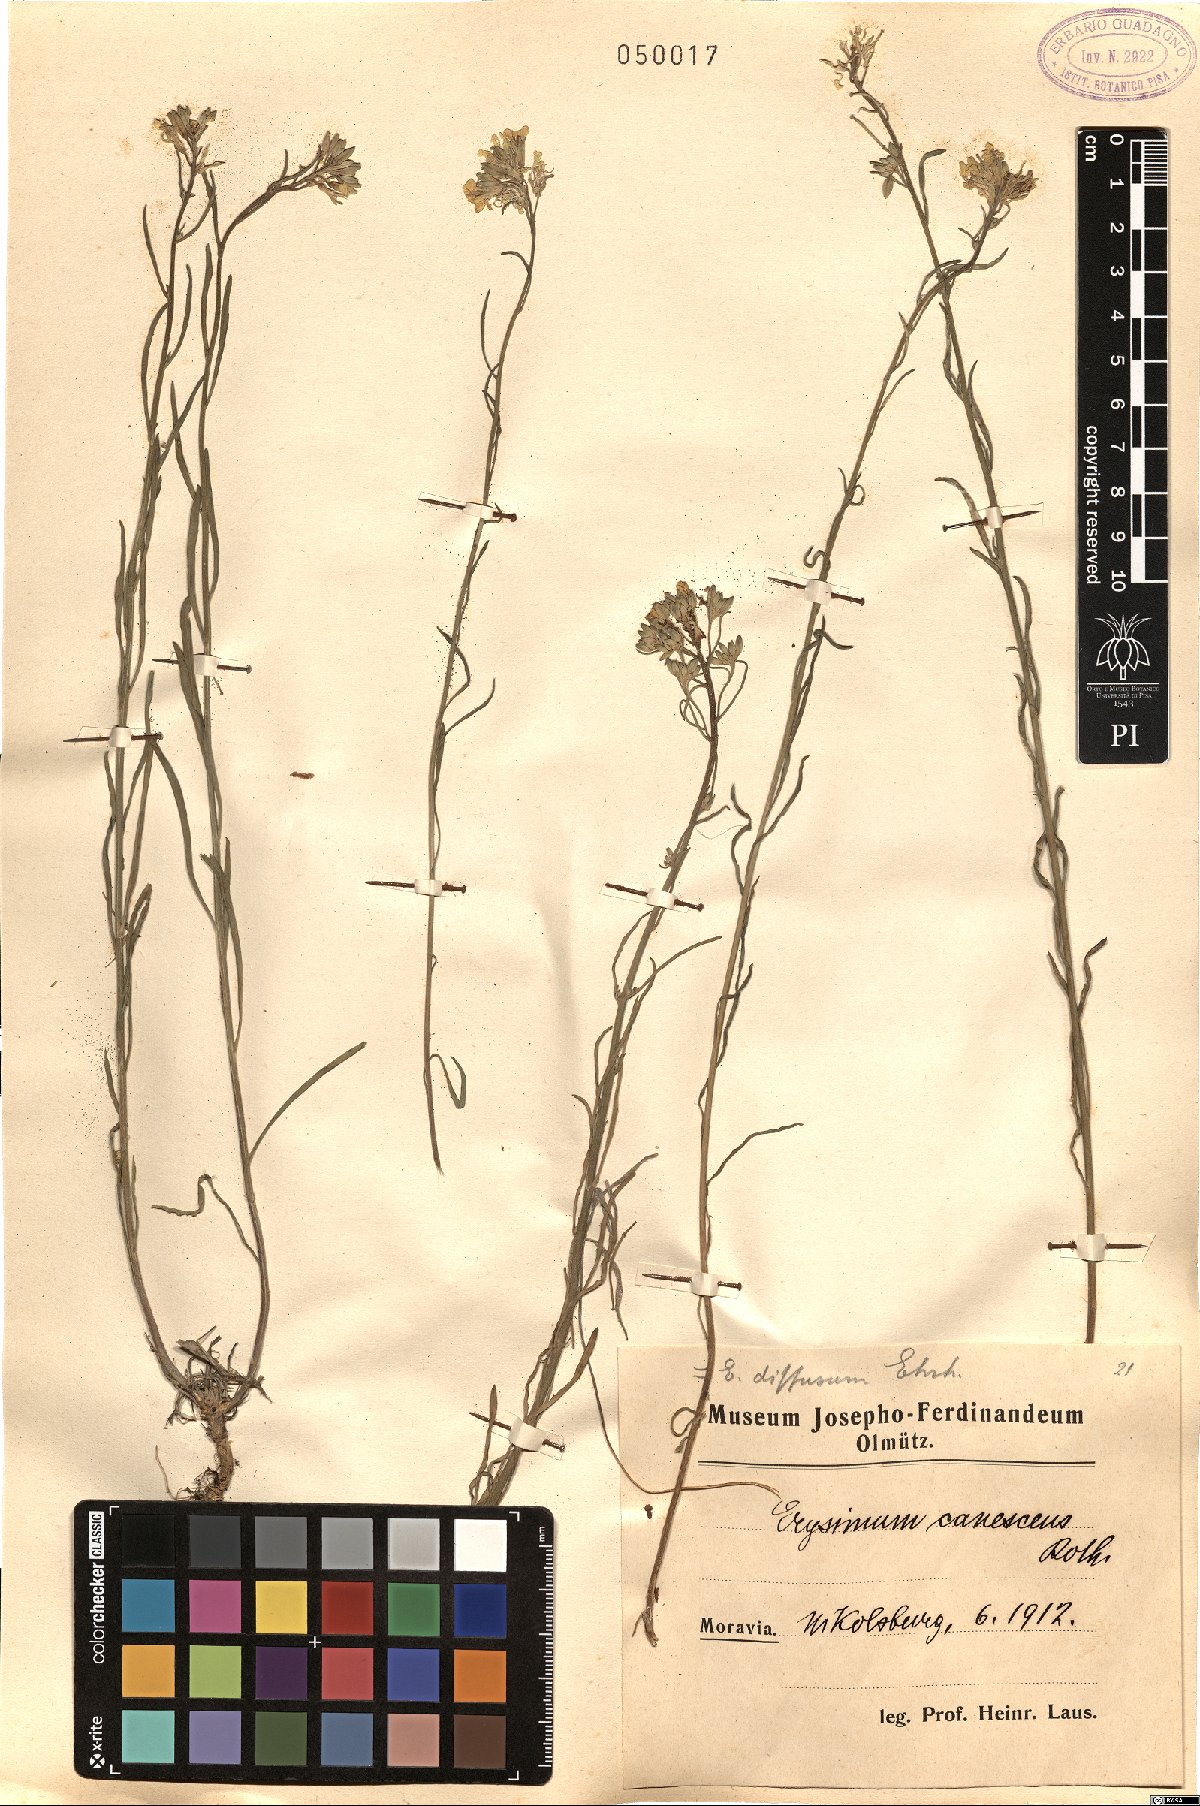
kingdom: Plantae
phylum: Tracheophyta
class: Magnoliopsida
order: Brassicales
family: Brassicaceae
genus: Erysimum
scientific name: Erysimum canescens
